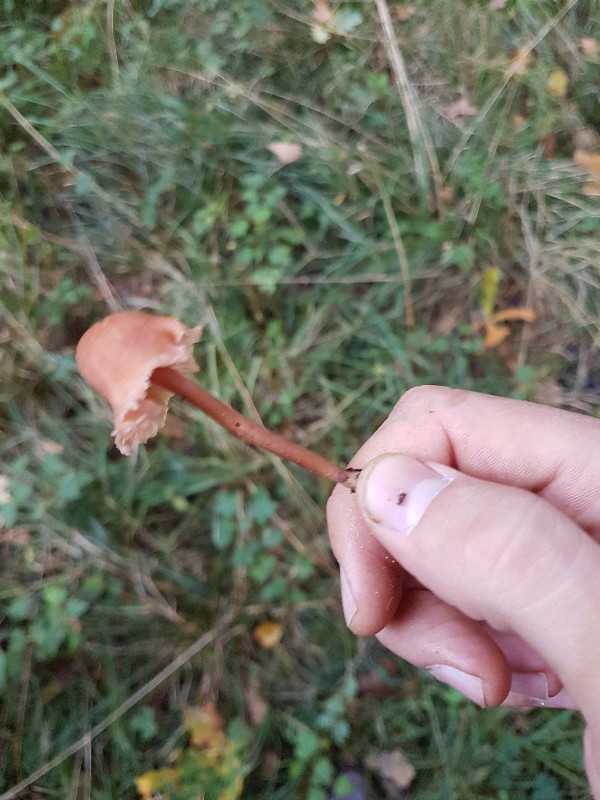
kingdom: Fungi
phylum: Basidiomycota
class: Agaricomycetes
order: Agaricales
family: Hydnangiaceae
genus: Laccaria
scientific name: Laccaria laccata
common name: rød ametysthat
